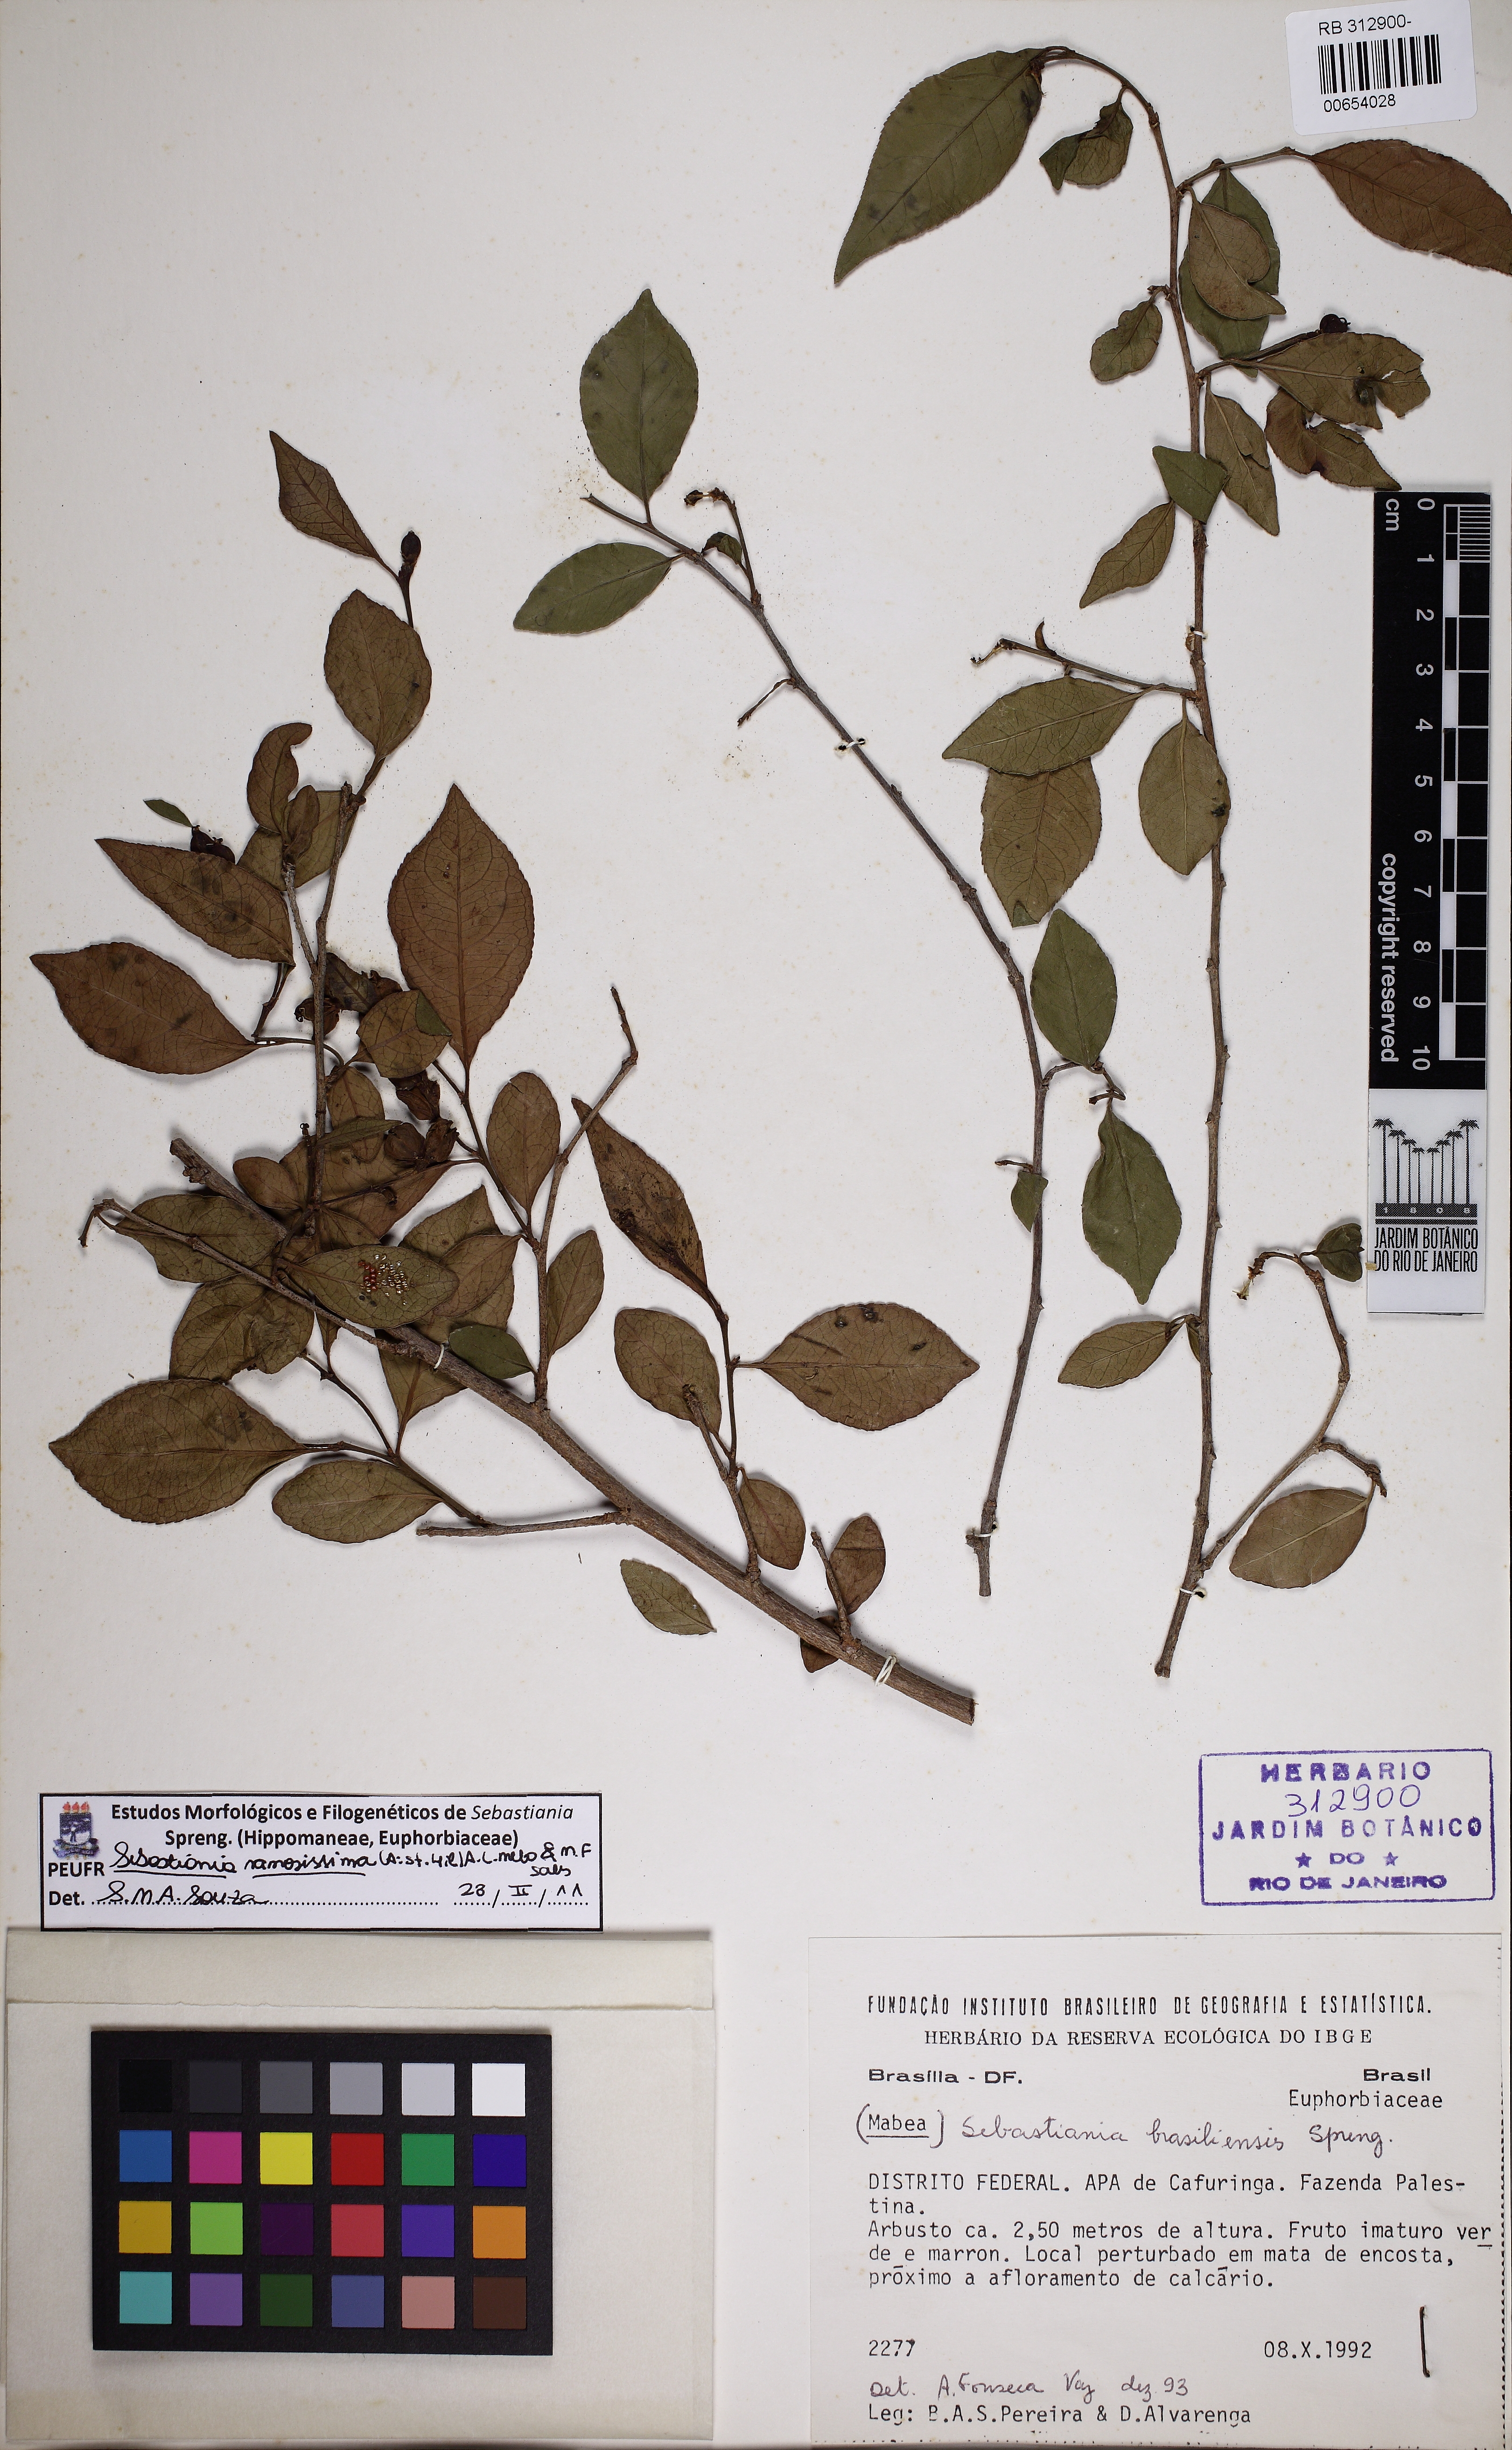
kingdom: Plantae
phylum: Tracheophyta
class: Magnoliopsida
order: Malpighiales
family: Euphorbiaceae
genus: Sebastiania
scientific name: Sebastiania ramosissima
